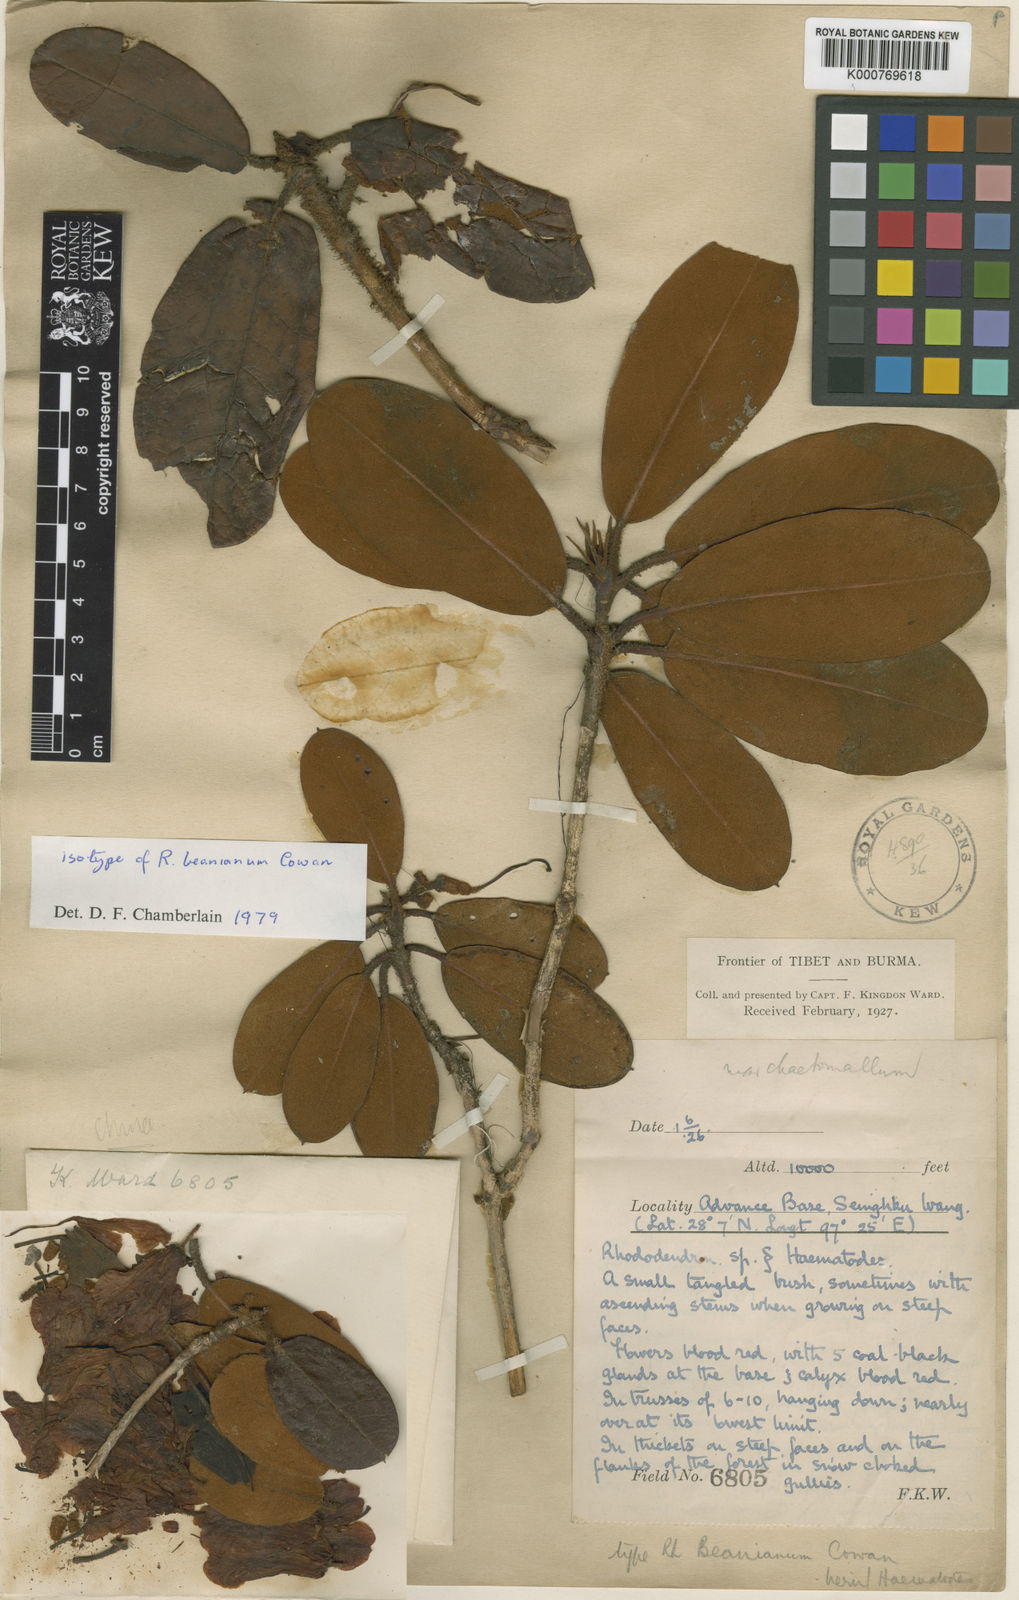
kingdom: Plantae
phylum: Tracheophyta
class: Magnoliopsida
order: Ericales
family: Ericaceae
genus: Rhododendron
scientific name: Rhododendron beanianum
